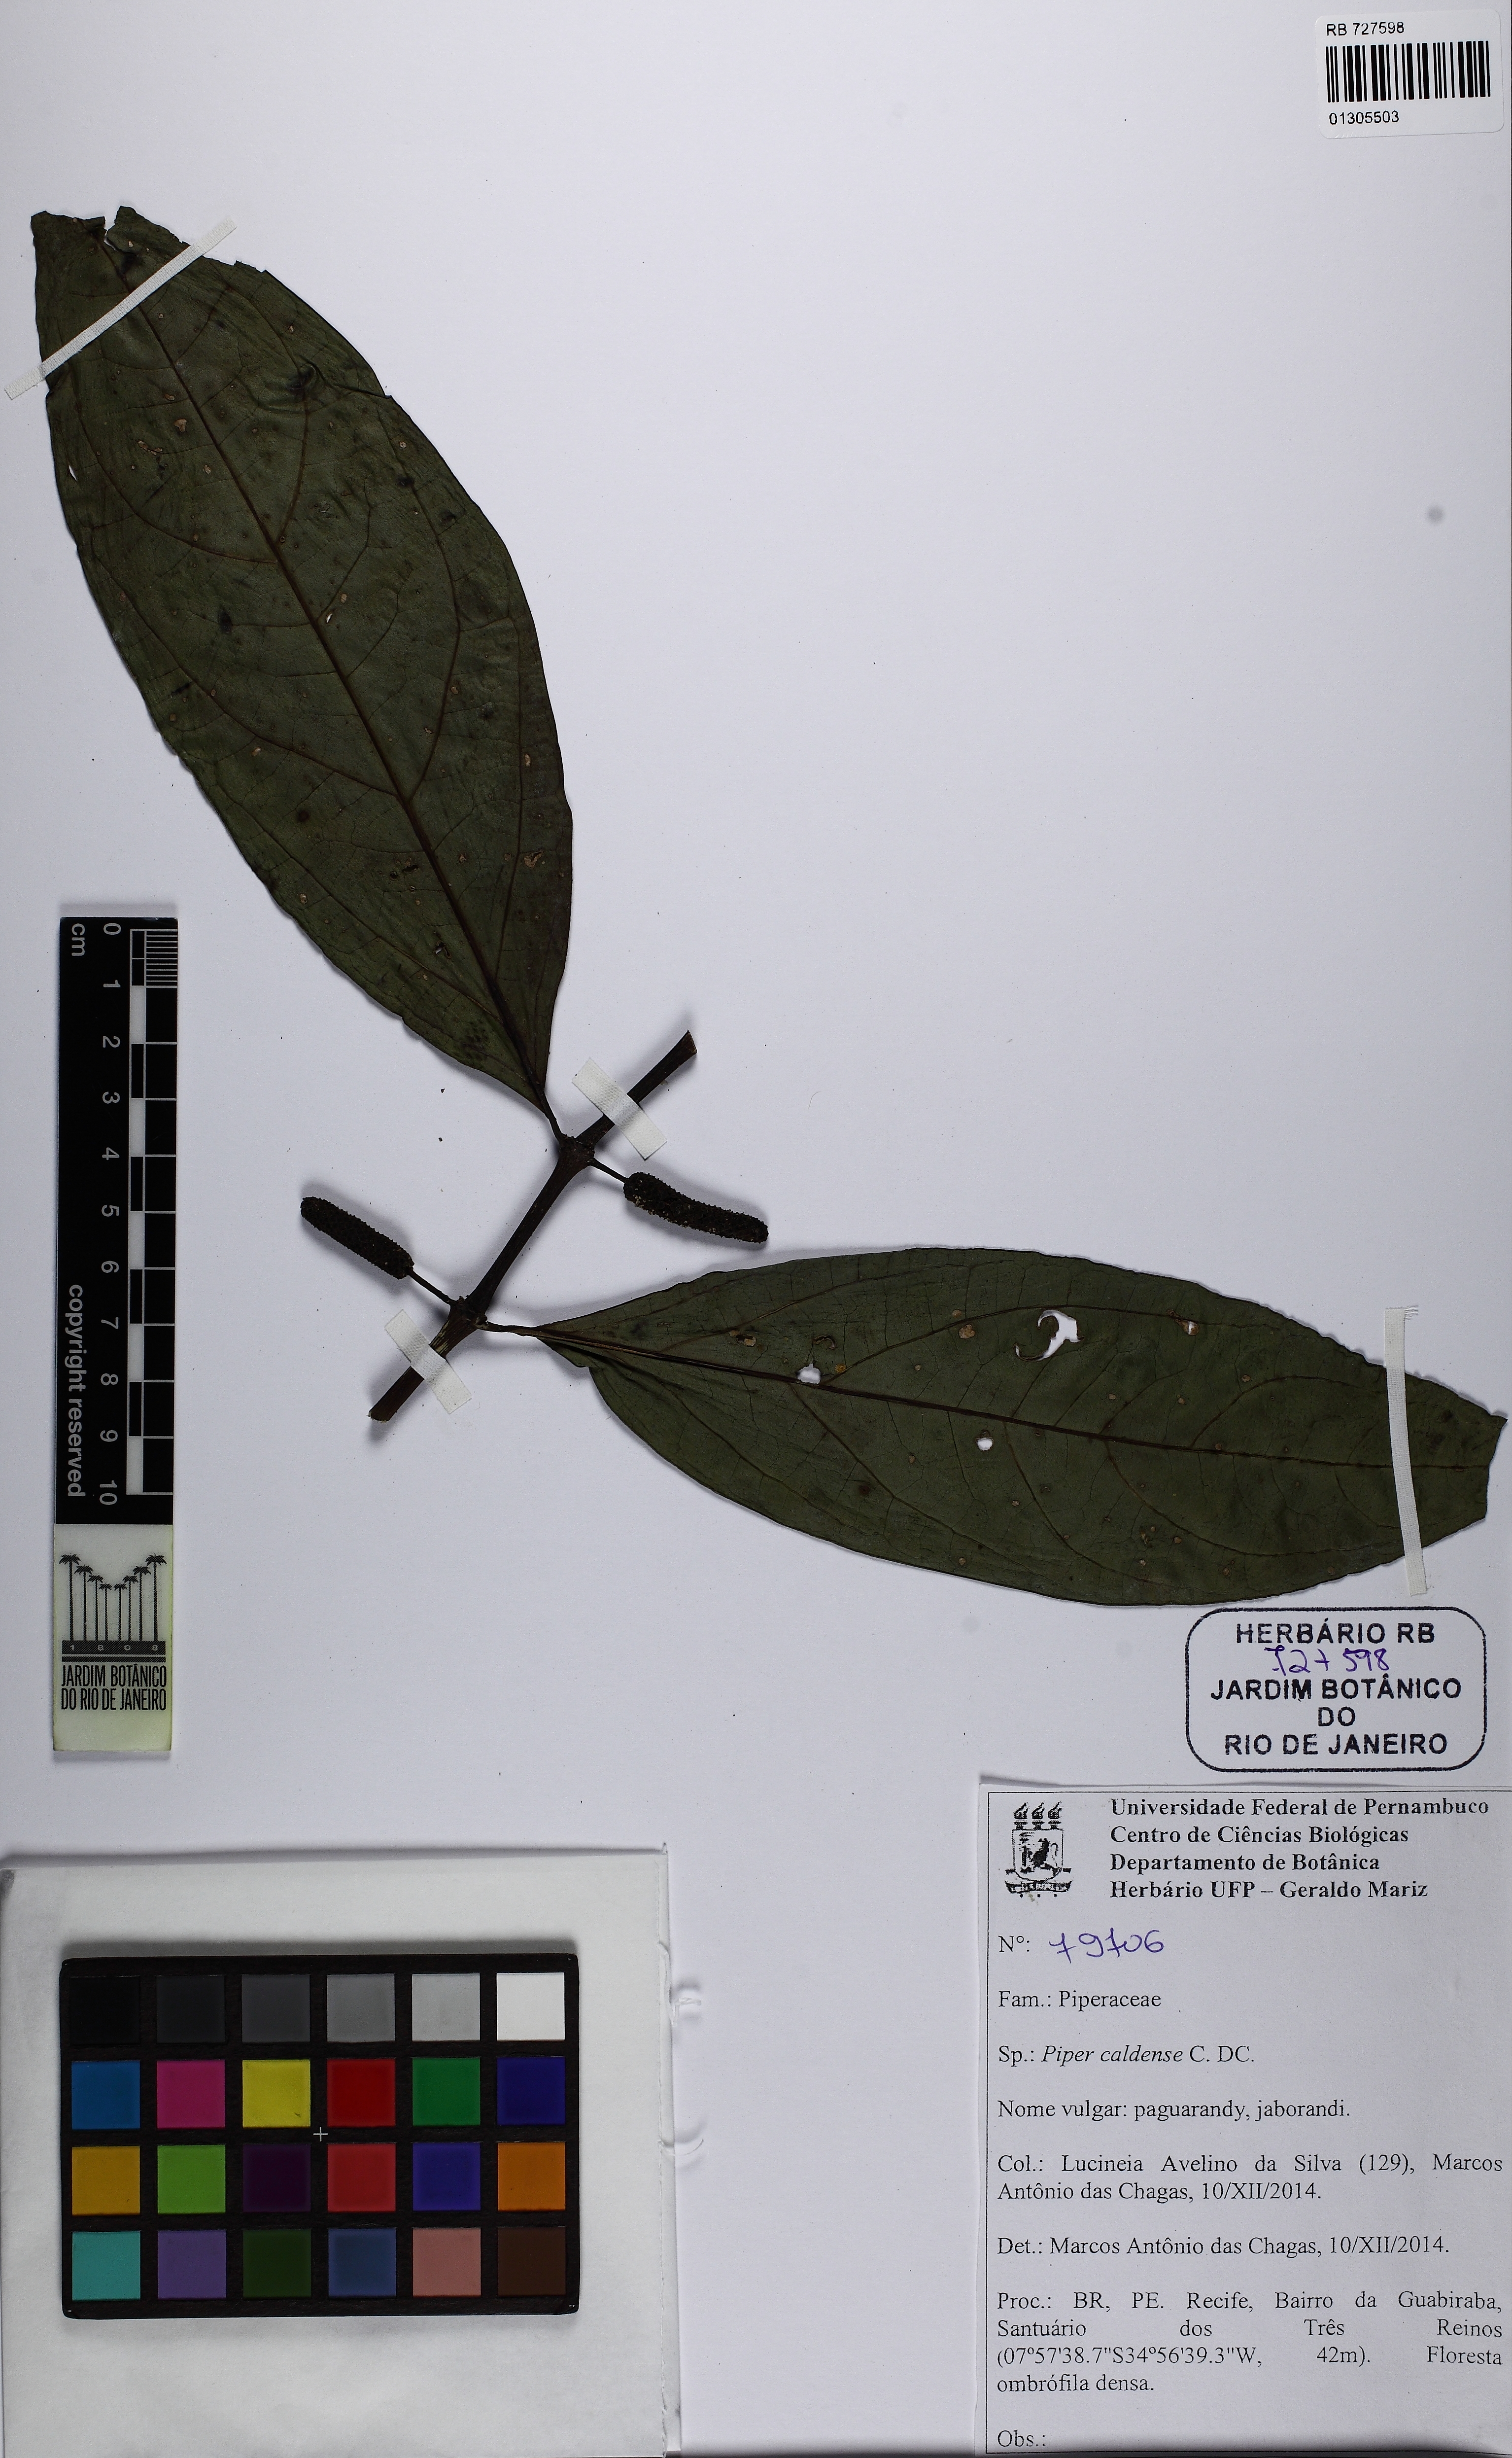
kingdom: Plantae
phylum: Tracheophyta
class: Magnoliopsida
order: Piperales
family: Piperaceae
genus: Piper
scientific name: Piper caldense
